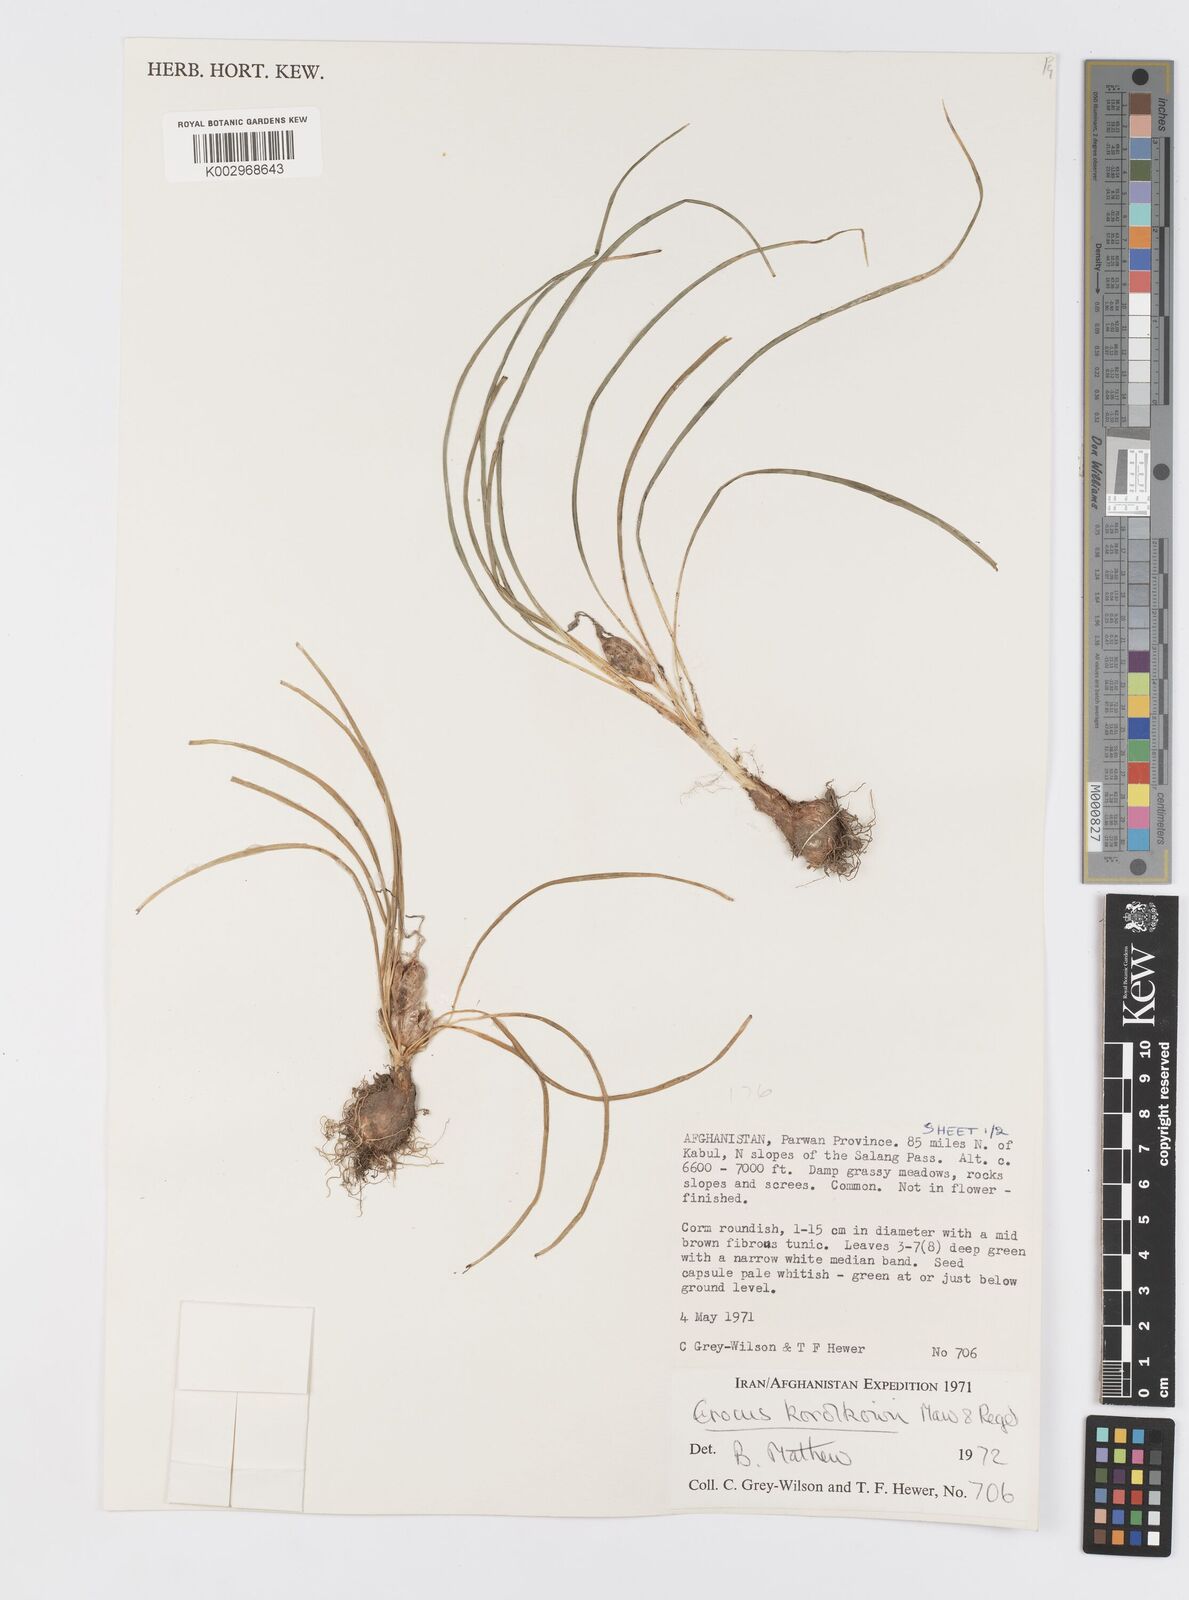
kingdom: Plantae
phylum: Tracheophyta
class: Liliopsida
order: Asparagales
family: Iridaceae
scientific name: Iridaceae
